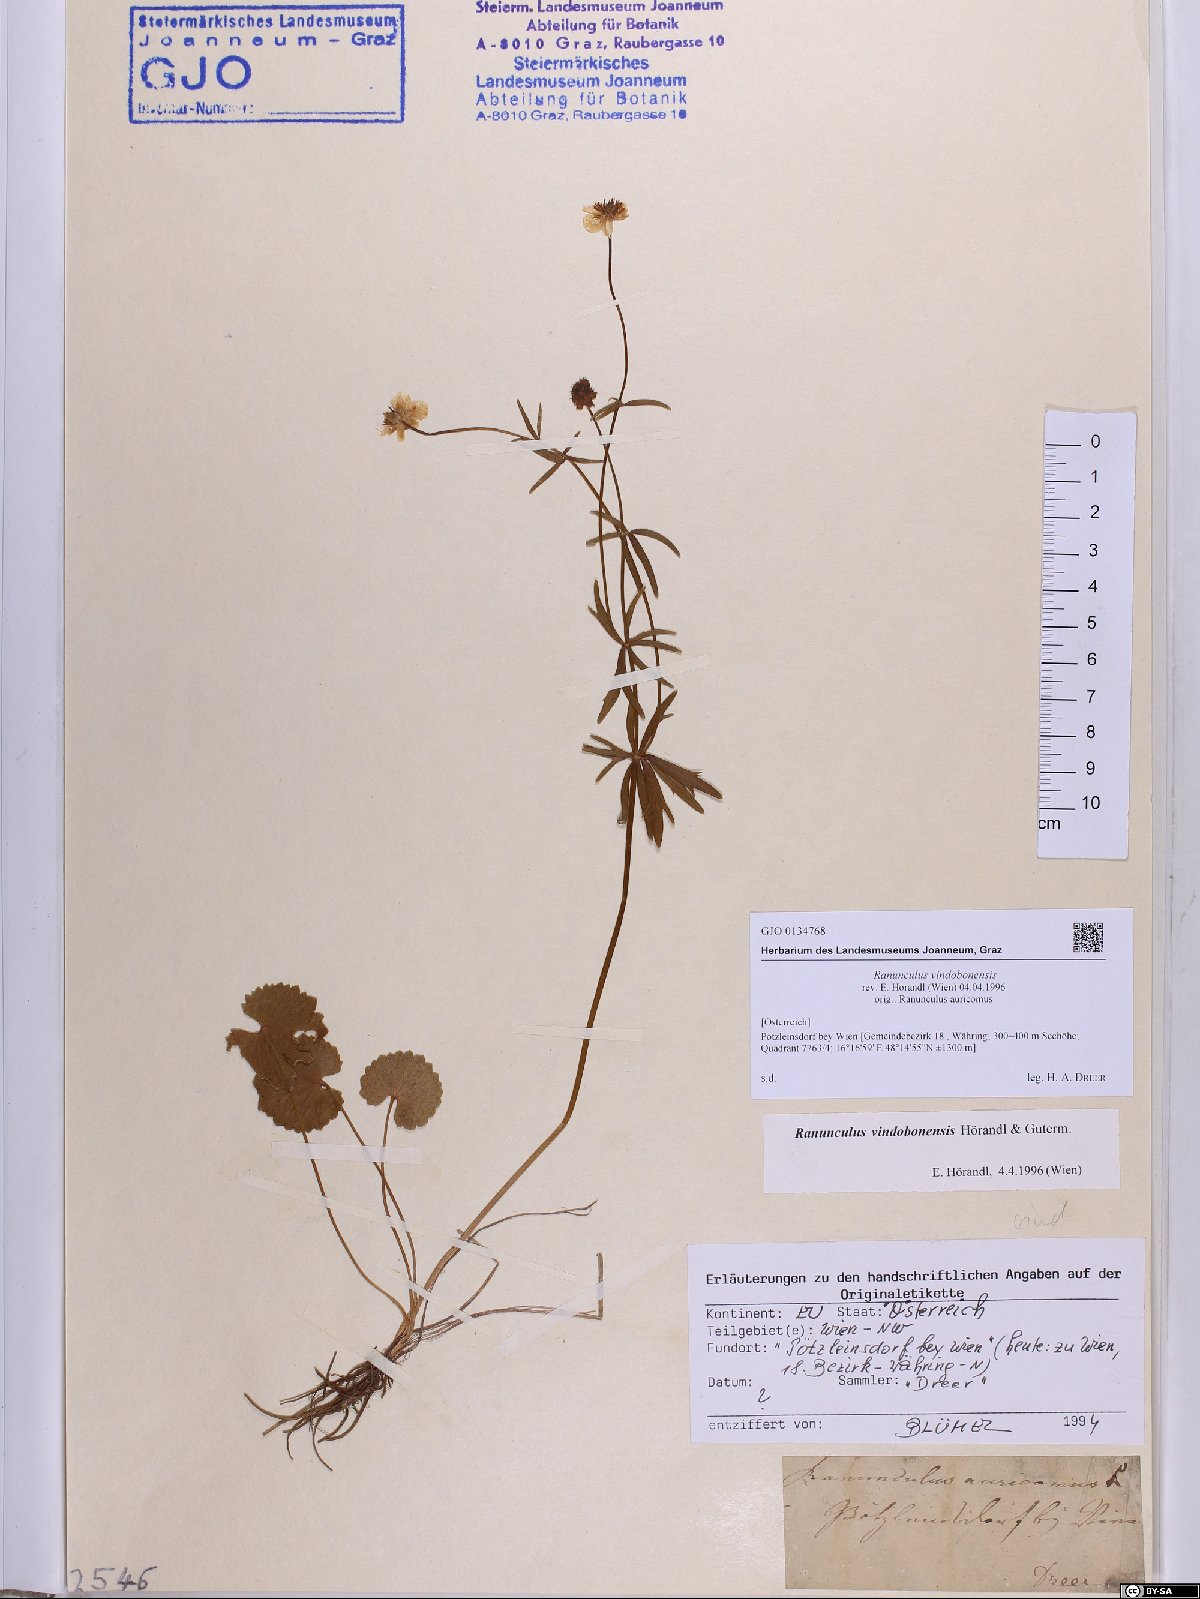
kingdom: Plantae
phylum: Tracheophyta
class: Magnoliopsida
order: Ranunculales
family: Ranunculaceae
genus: Ranunculus
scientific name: Ranunculus vindobonensis
